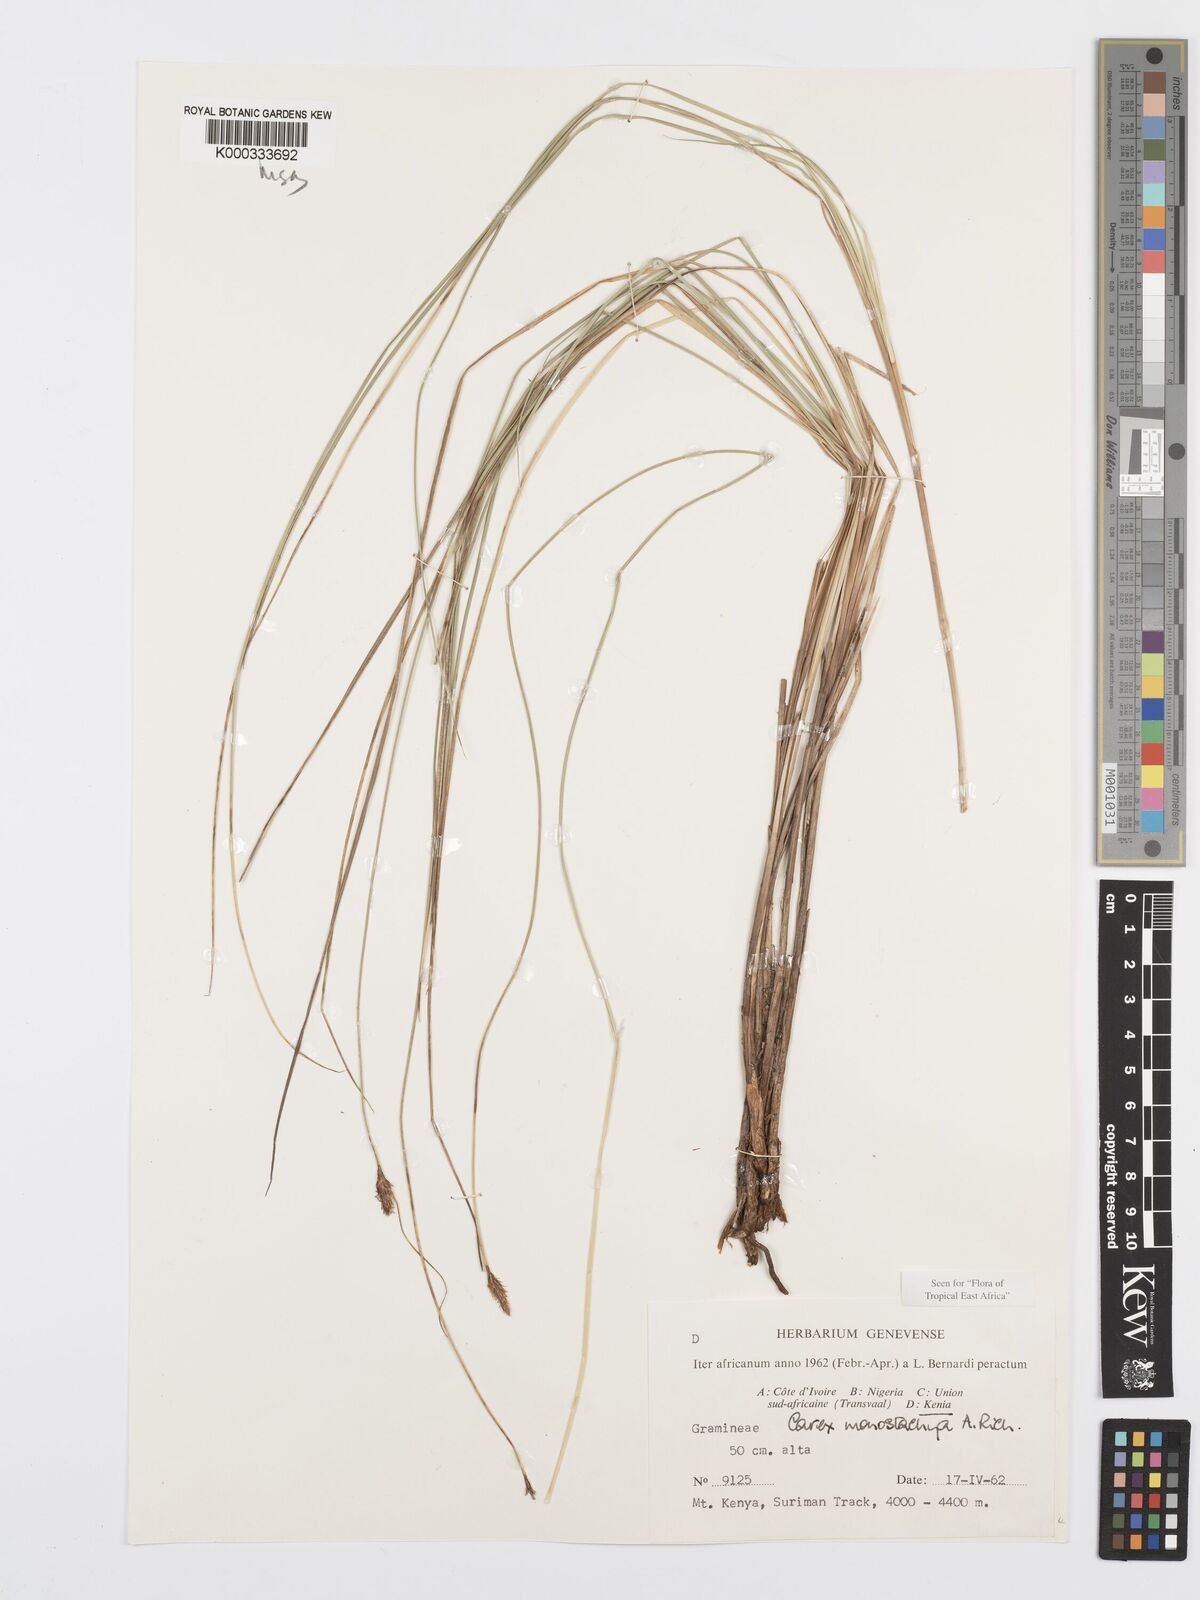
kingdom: Plantae
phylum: Tracheophyta
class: Liliopsida
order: Poales
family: Cyperaceae
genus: Carex
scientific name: Carex monostachya
